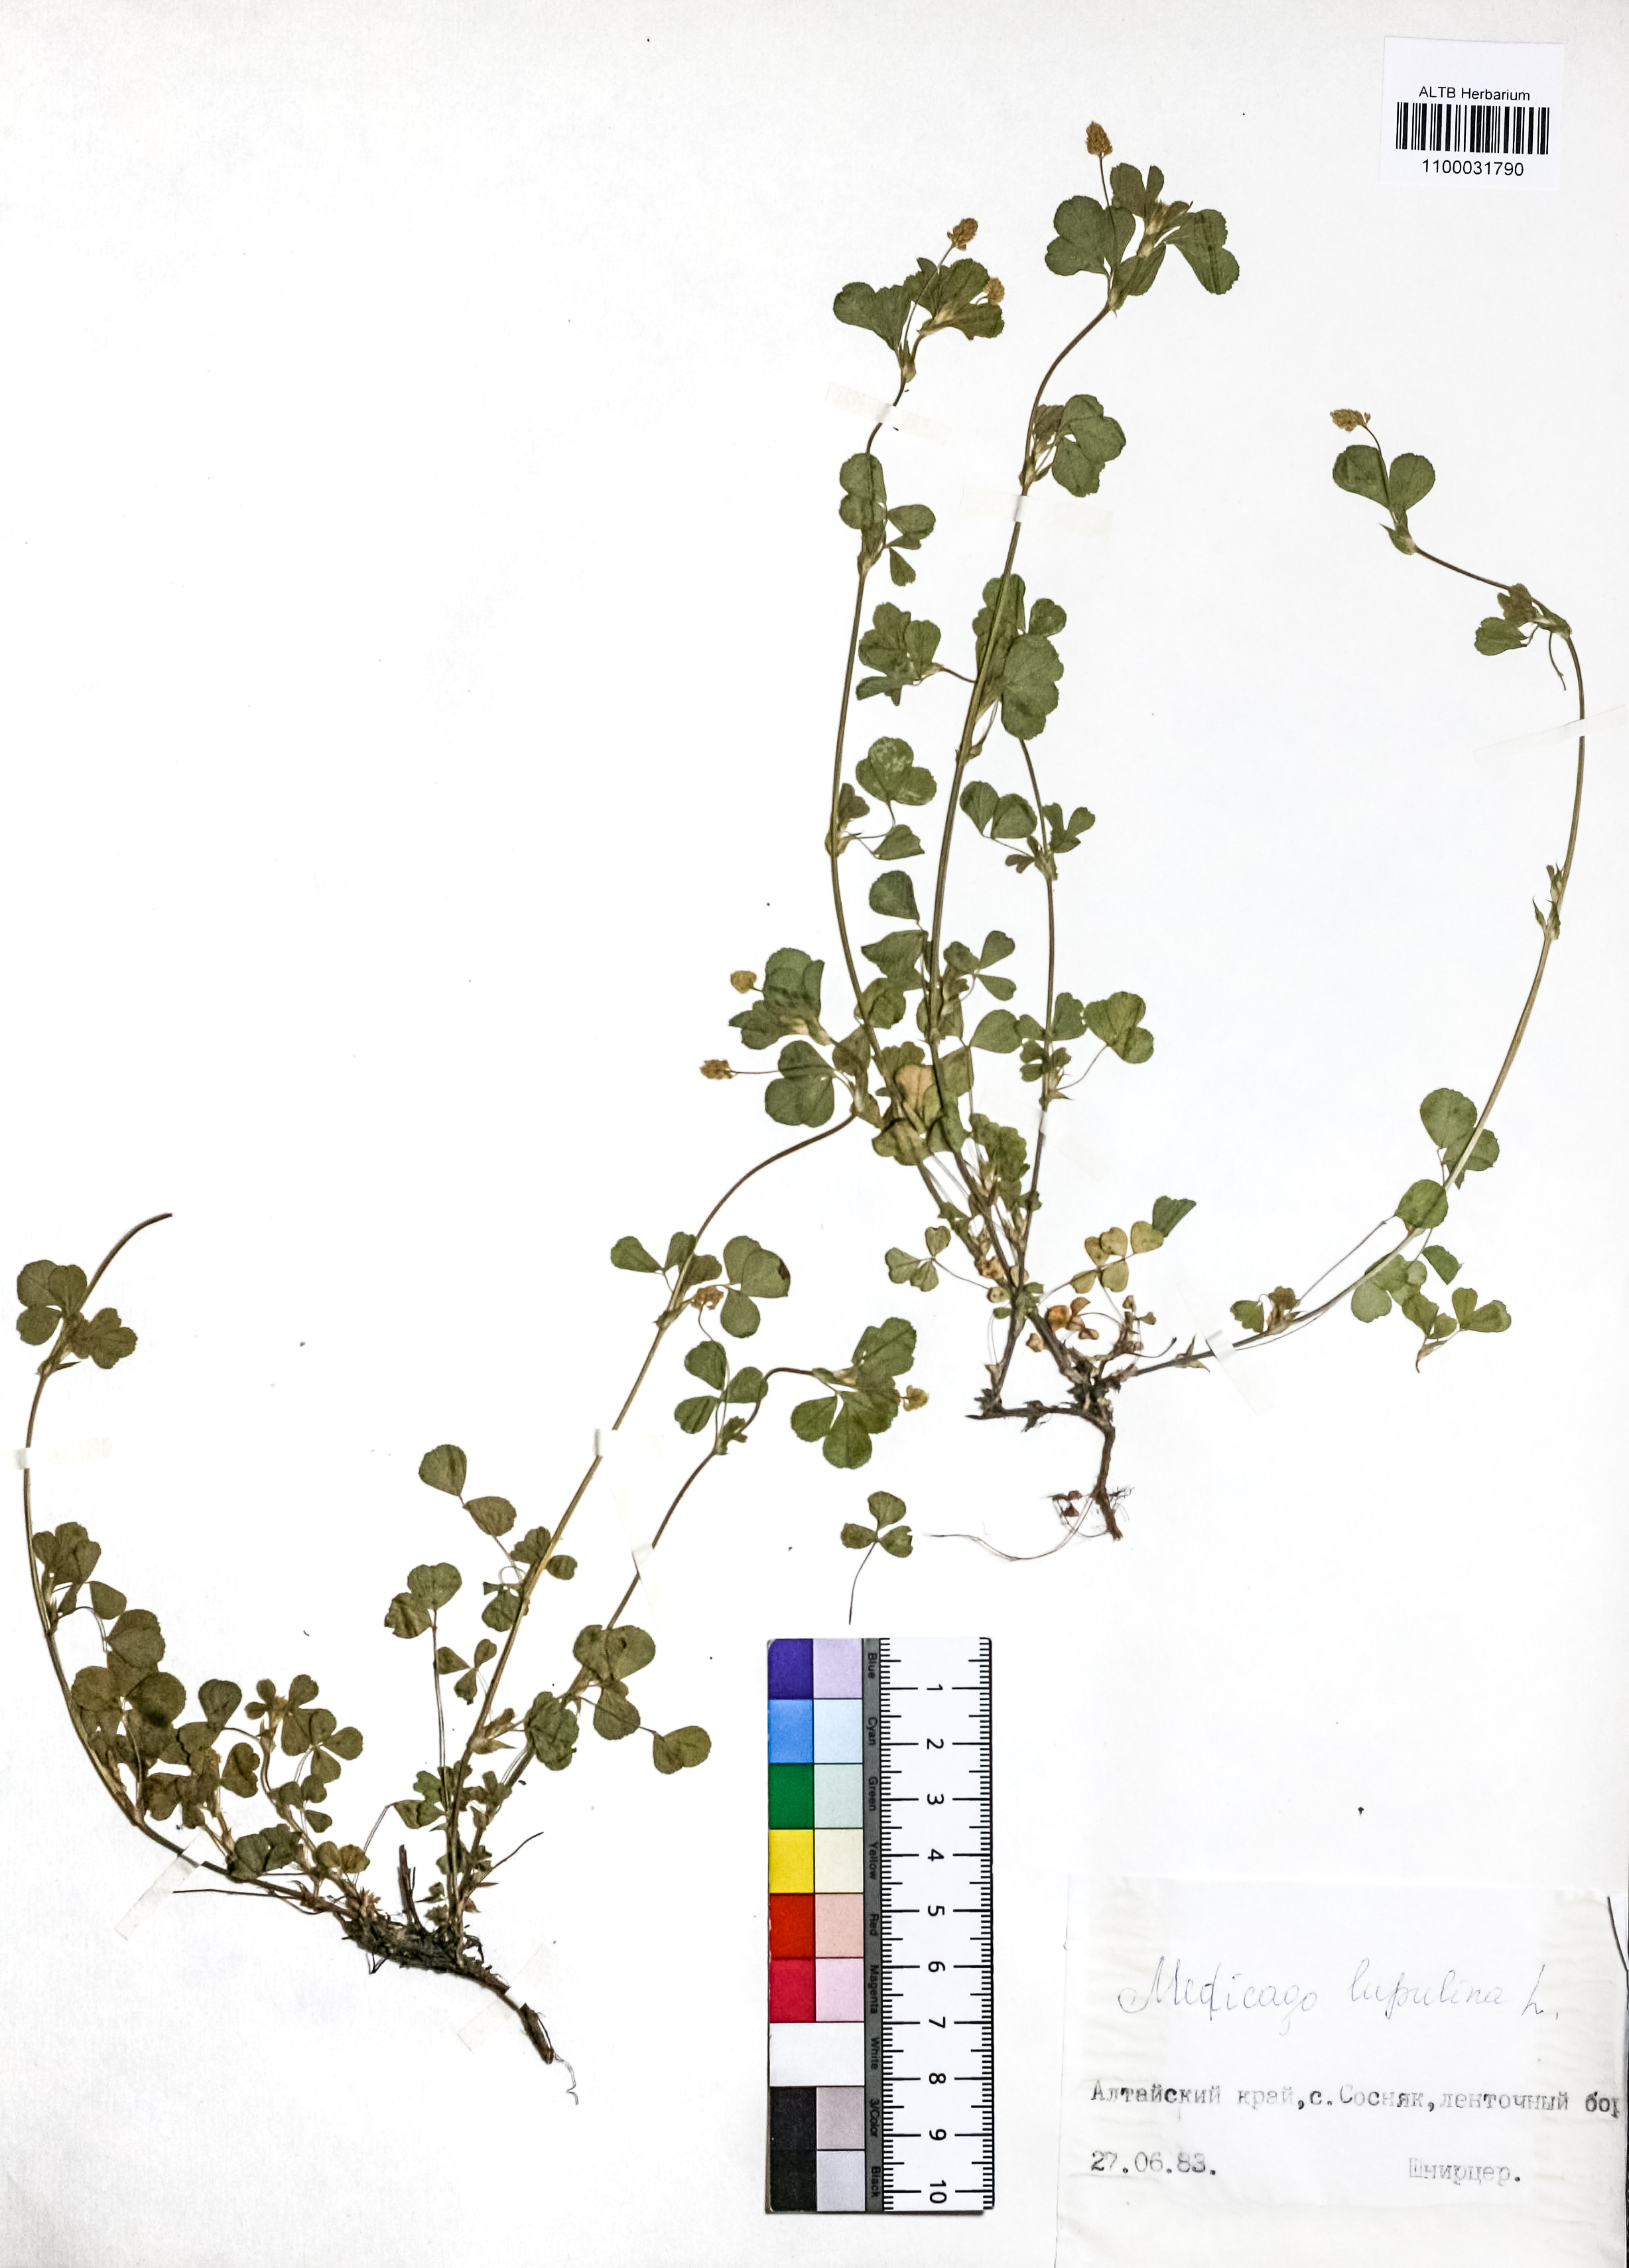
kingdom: Plantae
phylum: Tracheophyta
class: Magnoliopsida
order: Fabales
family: Fabaceae
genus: Medicago
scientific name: Medicago lupulina
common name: Black medick
